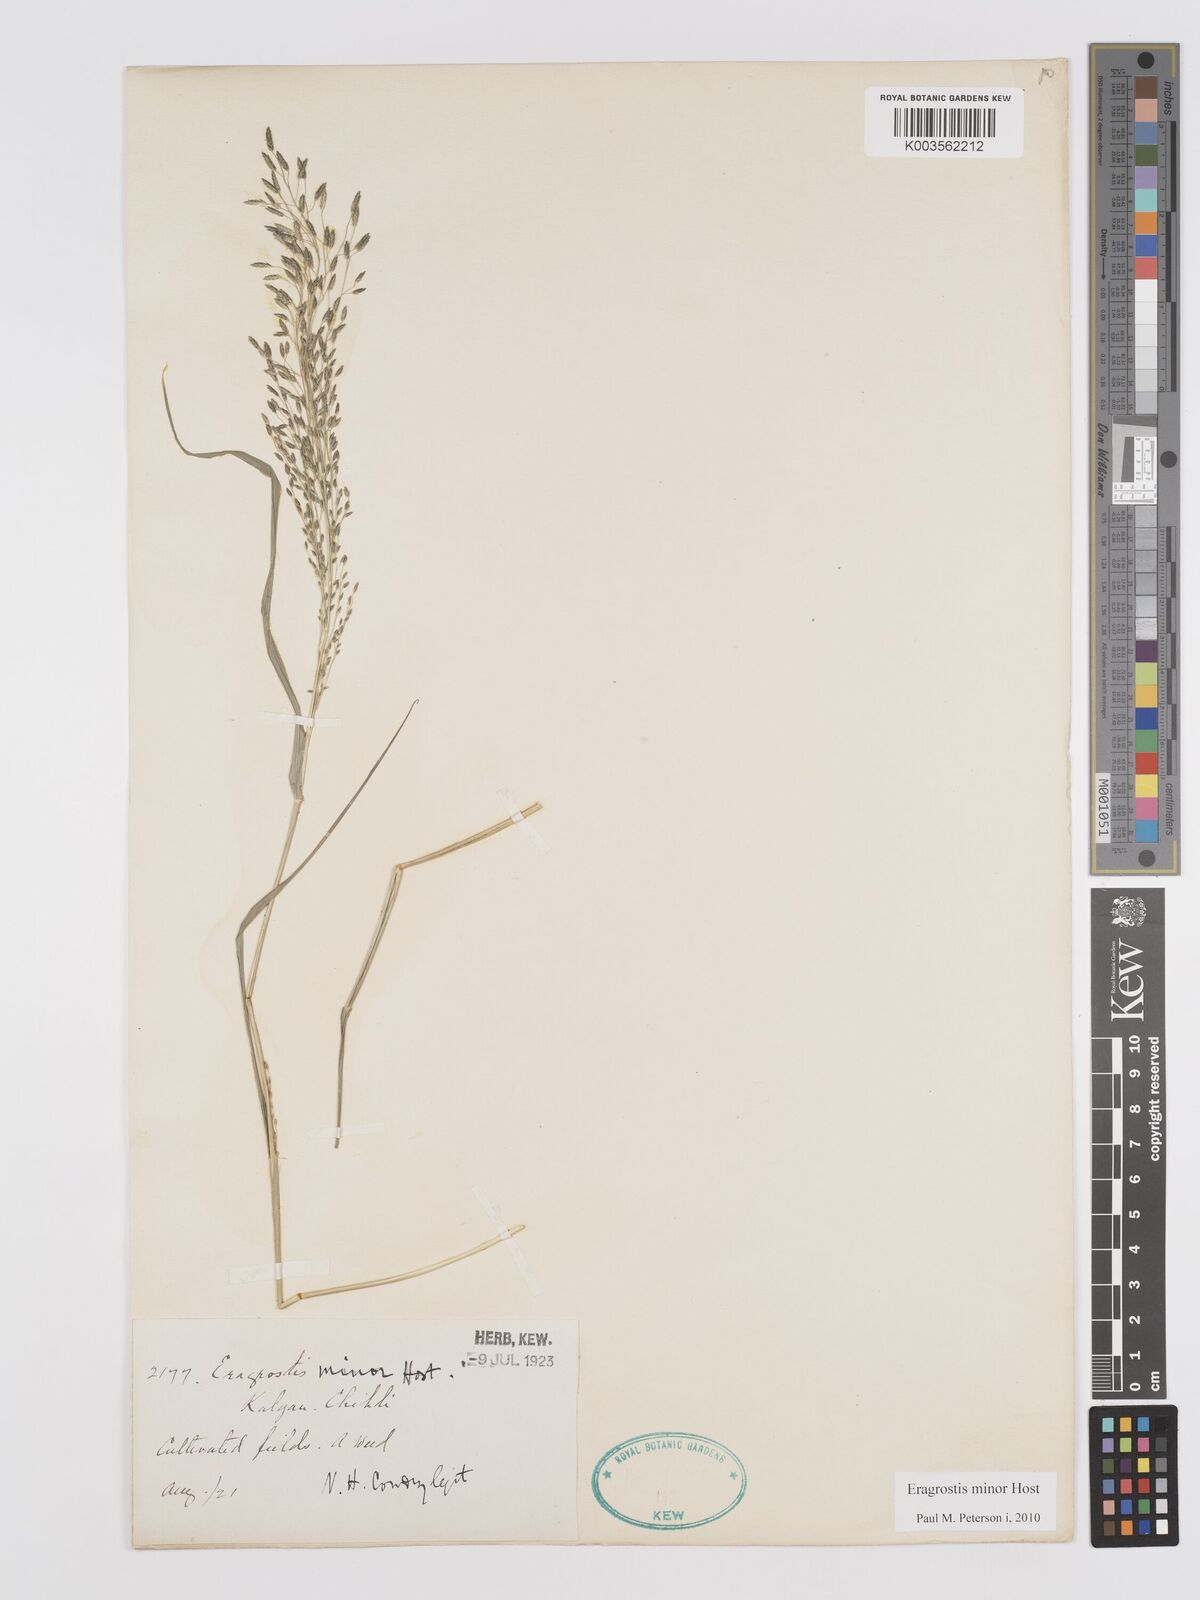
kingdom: Plantae
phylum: Tracheophyta
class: Liliopsida
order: Poales
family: Poaceae
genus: Eragrostis
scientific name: Eragrostis minor
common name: Small love-grass
